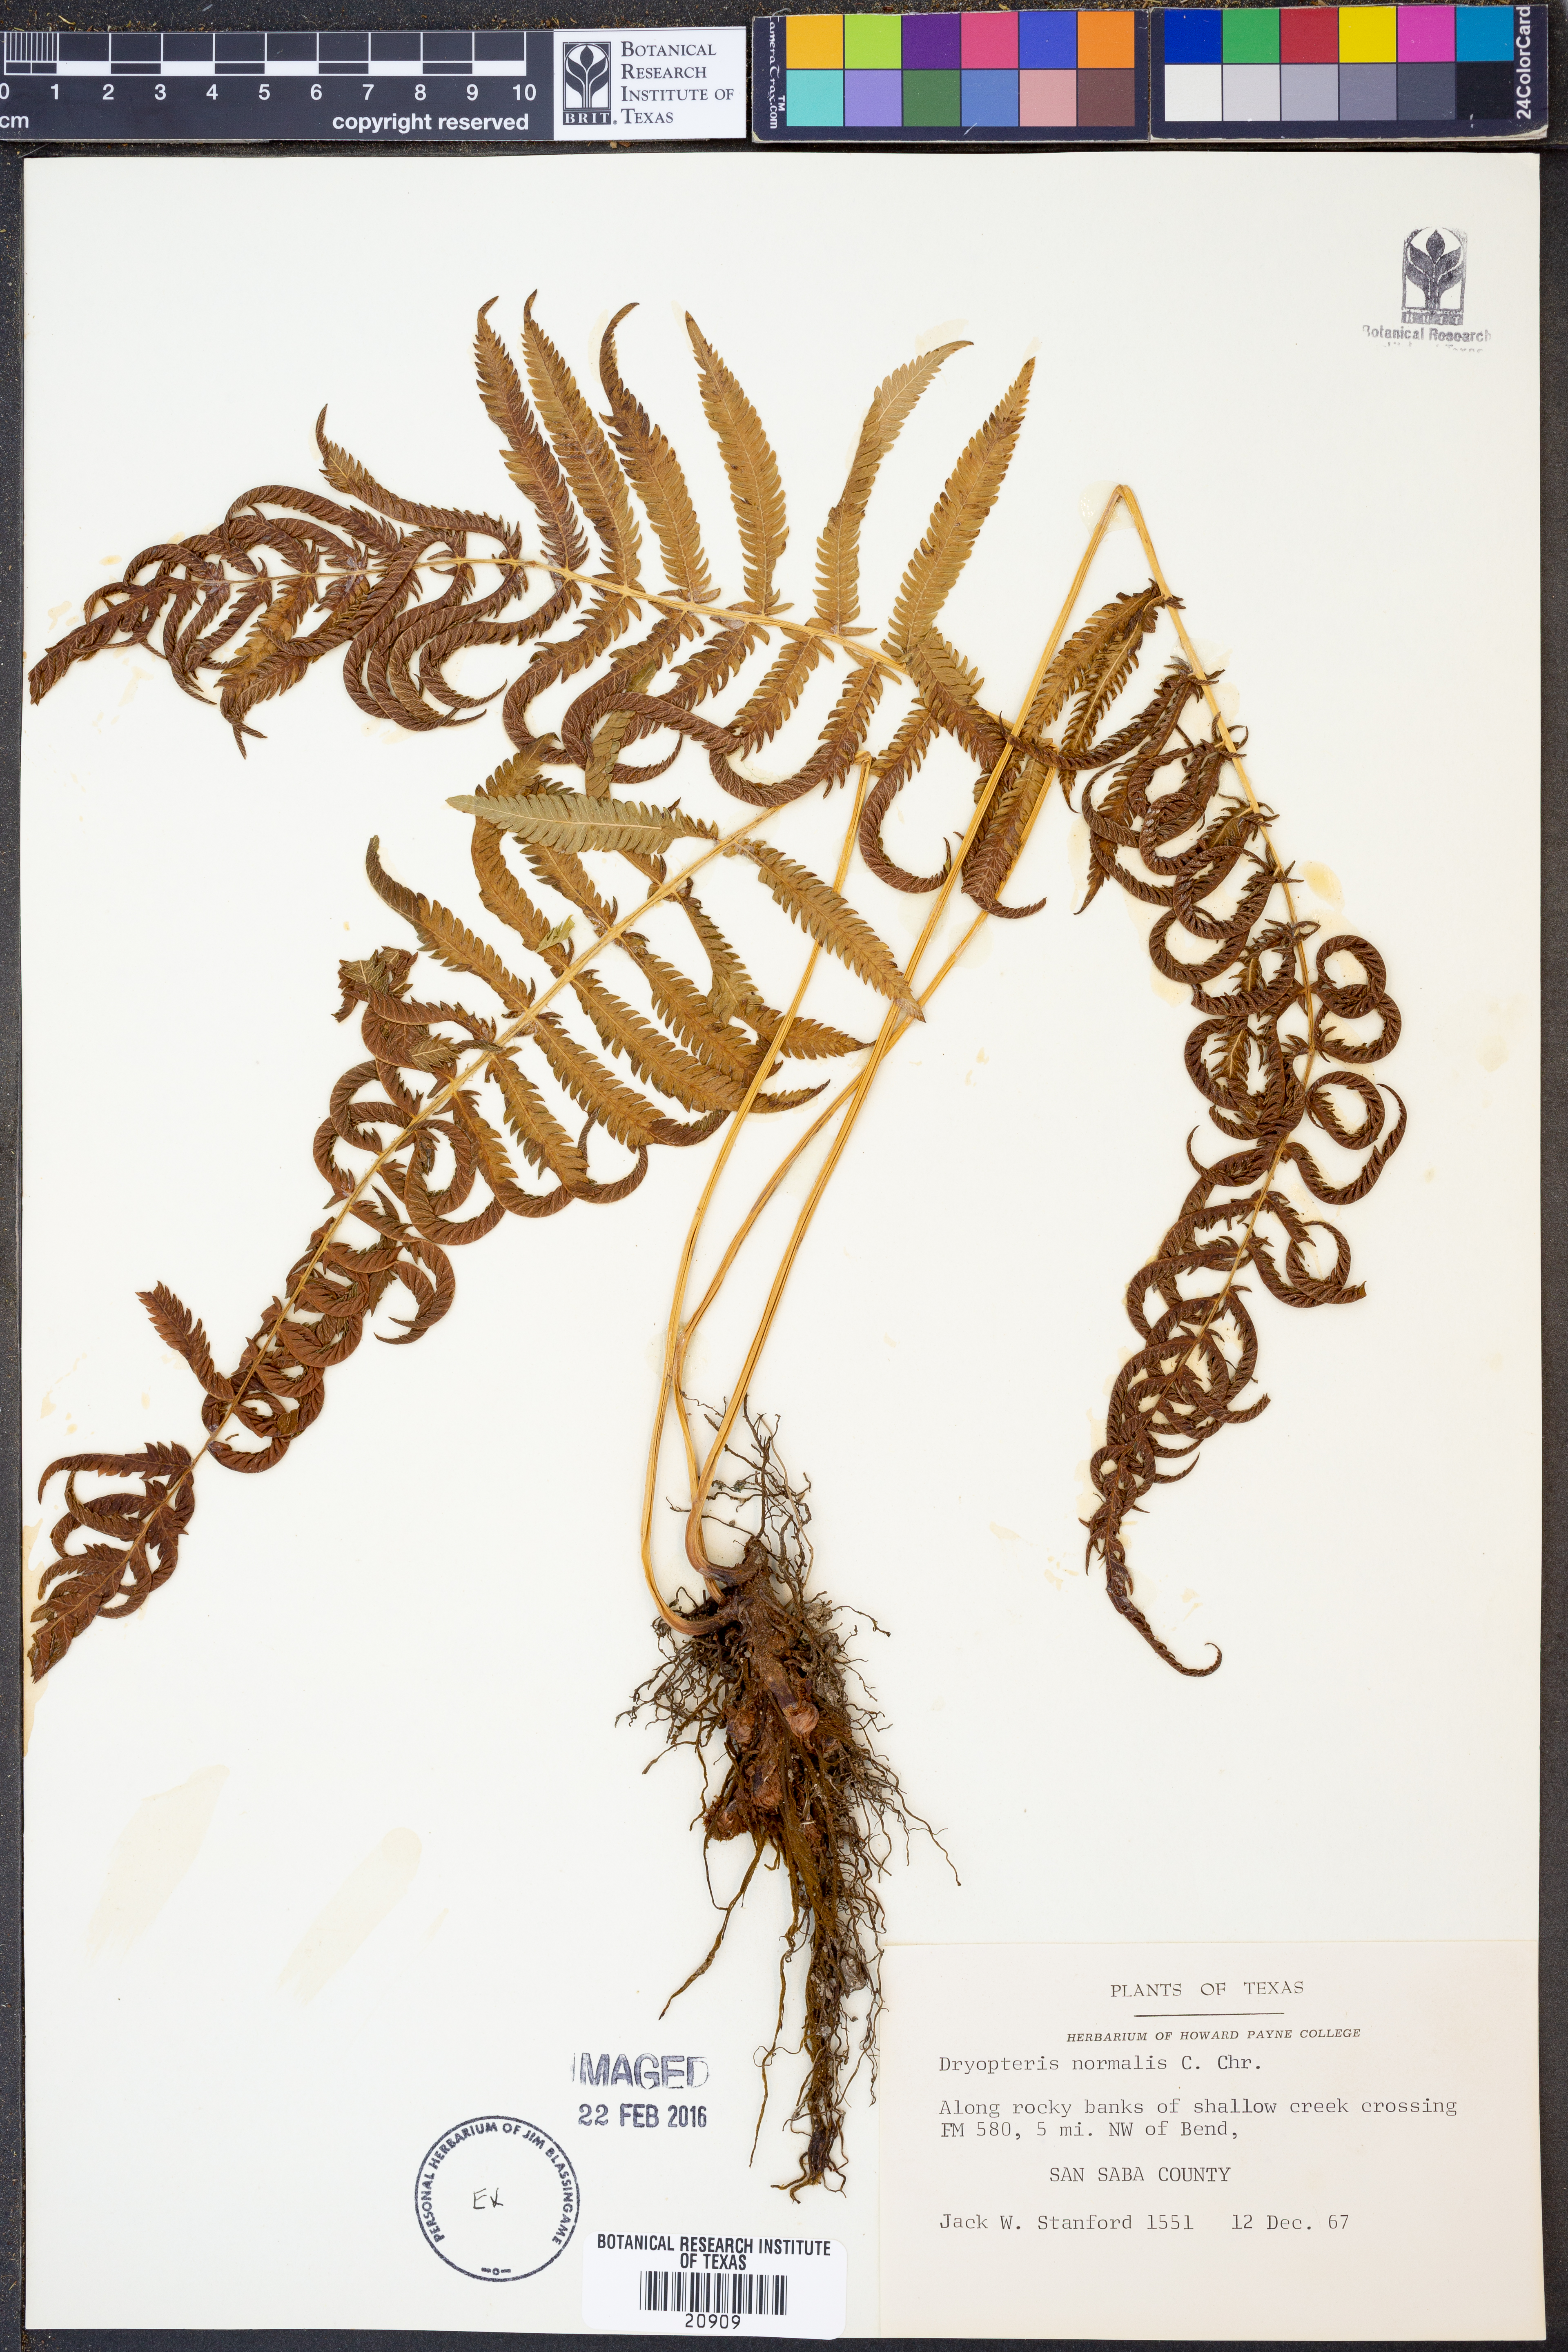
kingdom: Plantae
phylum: Tracheophyta
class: Polypodiopsida
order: Polypodiales
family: Thelypteridaceae
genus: Pelazoneuron
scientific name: Pelazoneuron kunthii
